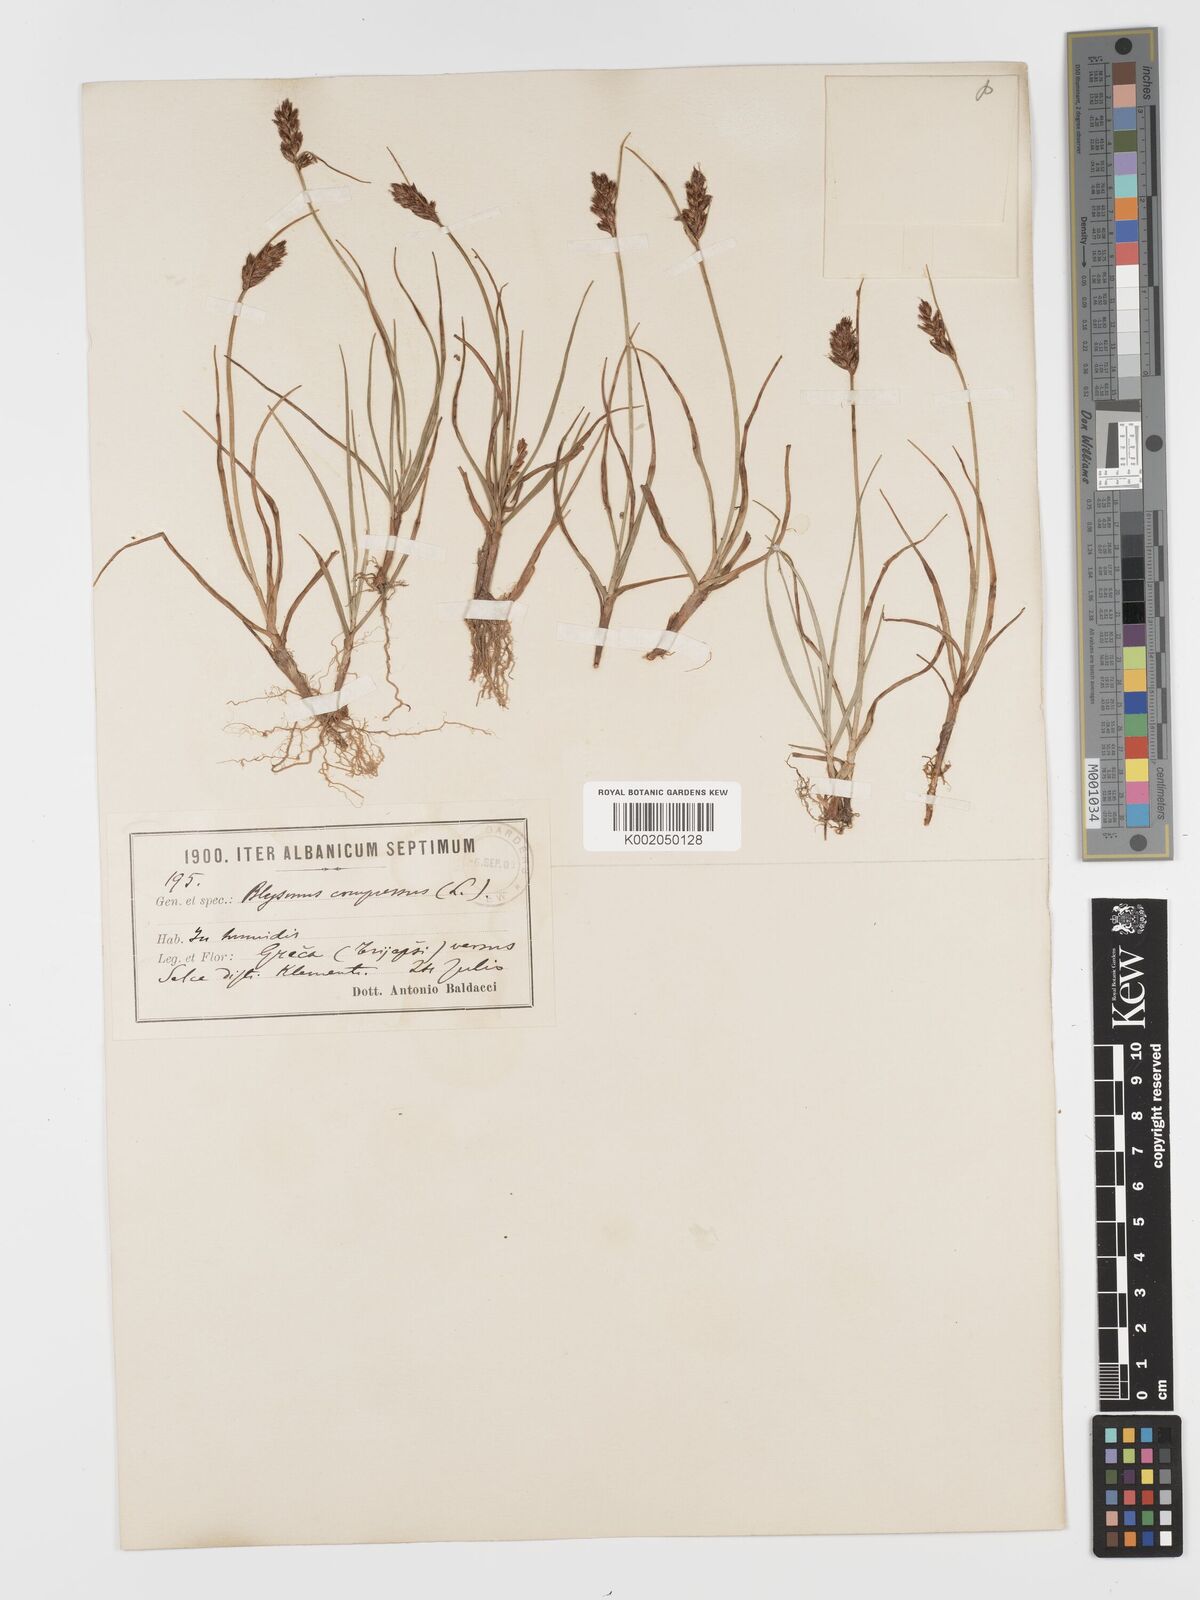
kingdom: Plantae
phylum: Tracheophyta
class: Liliopsida
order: Poales
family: Cyperaceae
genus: Blysmus
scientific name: Blysmus compressus
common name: Flat-sedge
